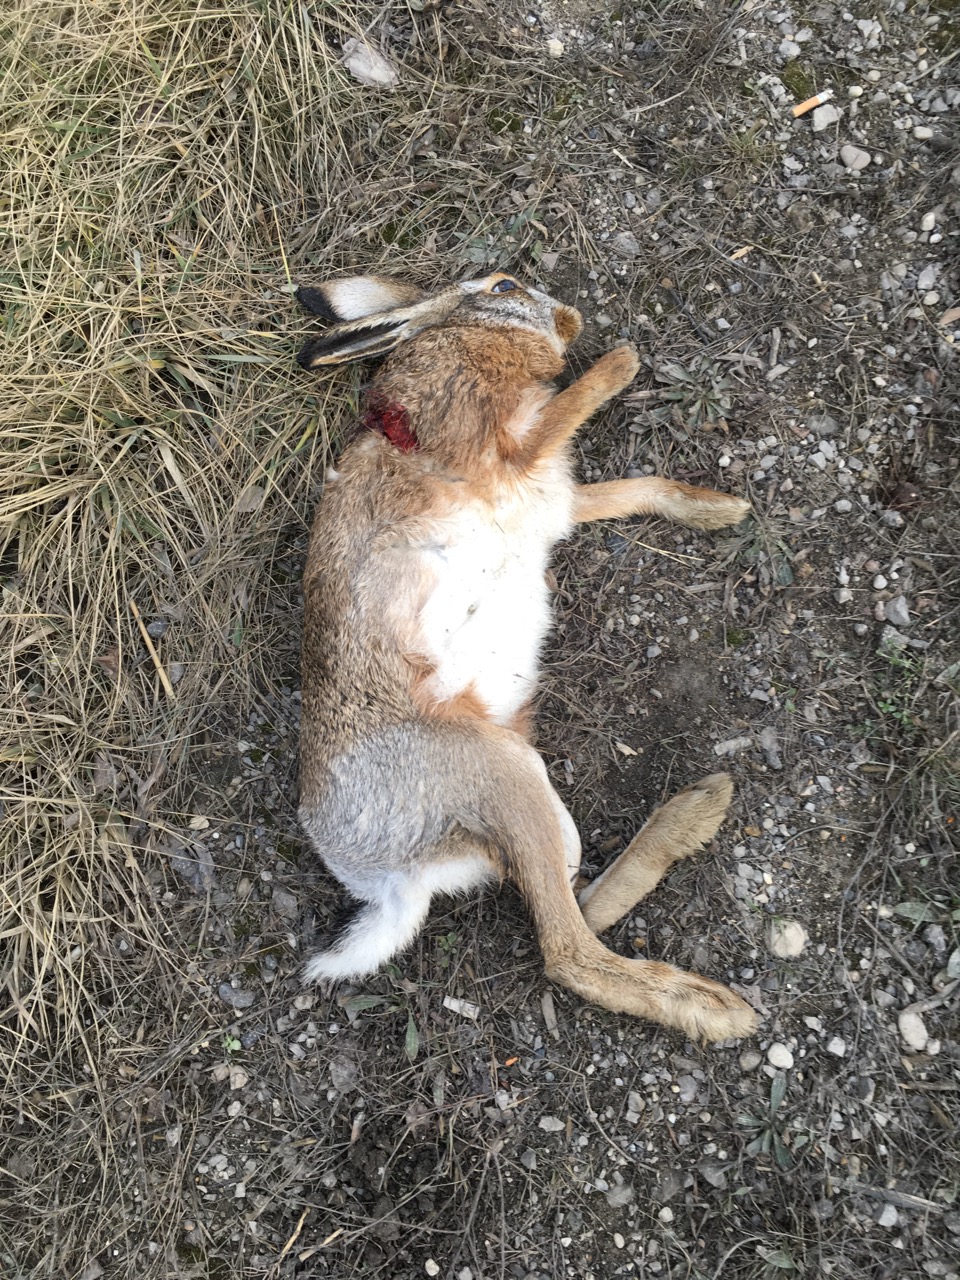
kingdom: Animalia
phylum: Chordata
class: Mammalia
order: Lagomorpha
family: Leporidae
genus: Lepus
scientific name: Lepus europaeus
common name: European hare
